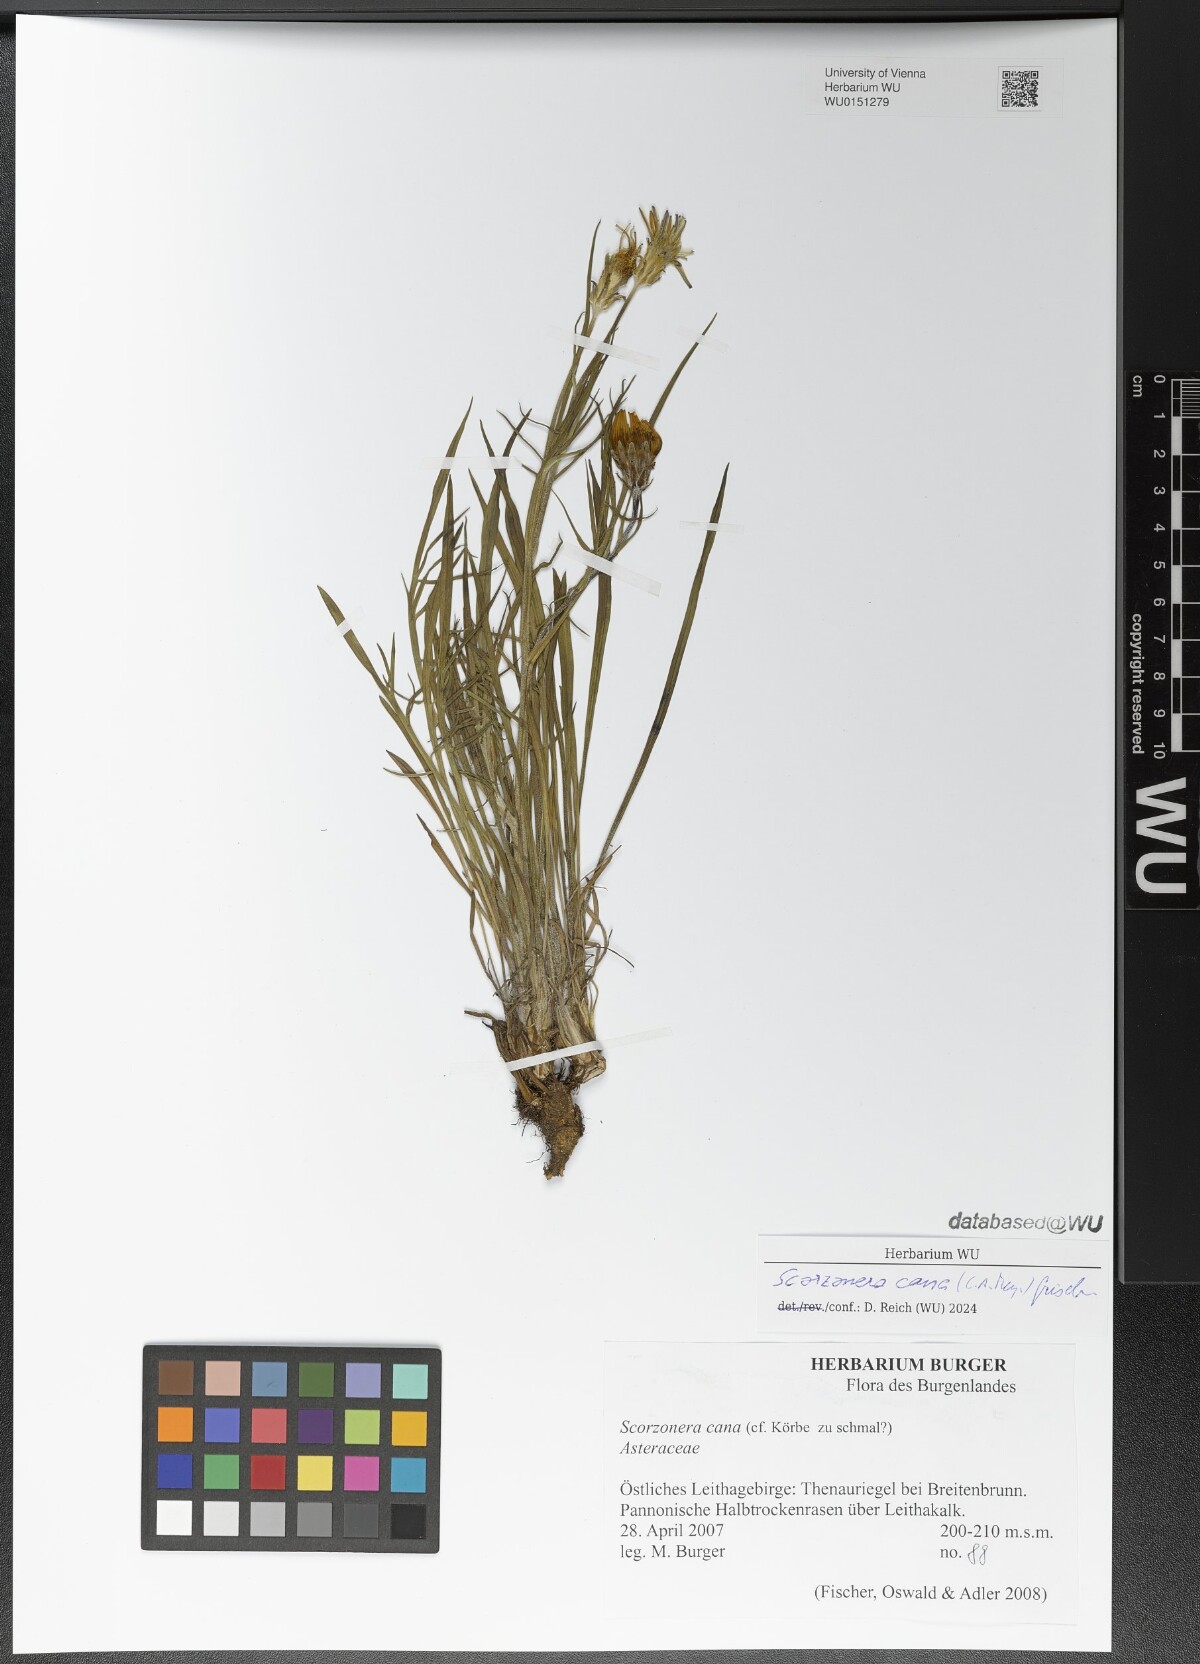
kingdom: Plantae
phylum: Tracheophyta
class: Magnoliopsida
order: Asterales
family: Asteraceae
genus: Scorzonera
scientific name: Scorzonera cana
